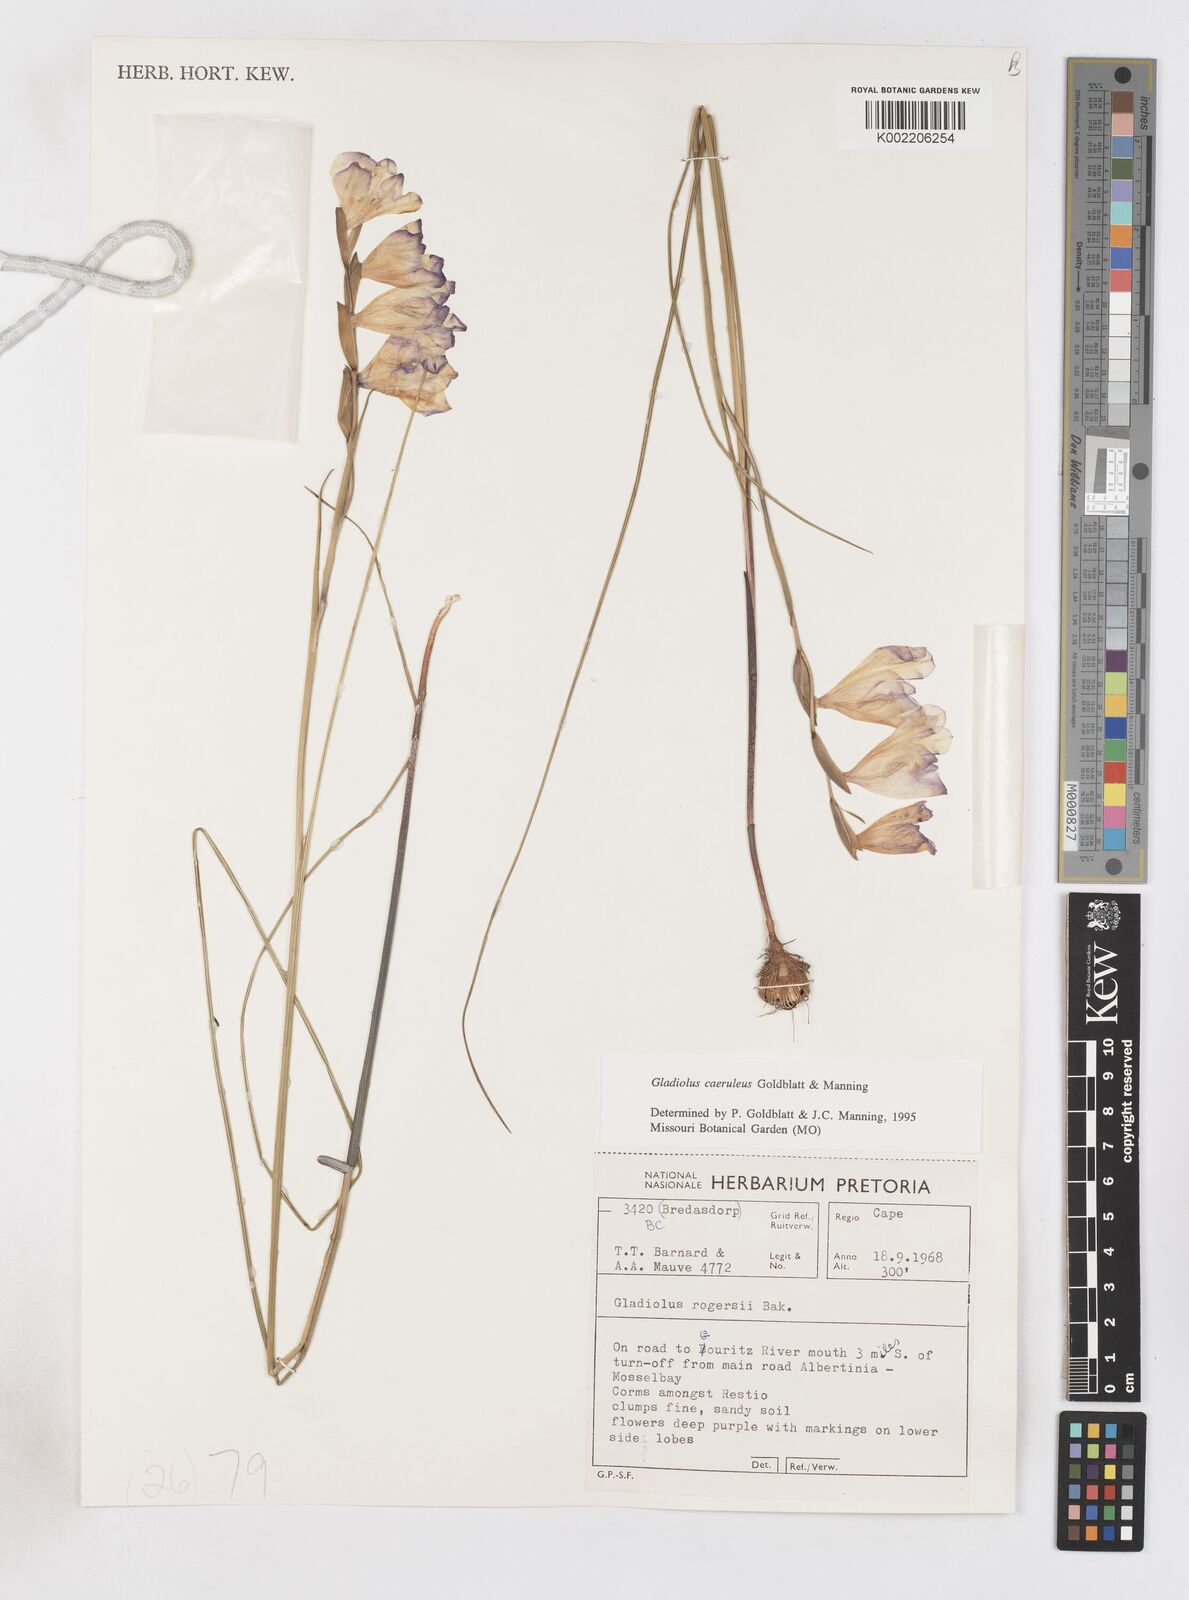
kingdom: Plantae
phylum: Tracheophyta
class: Liliopsida
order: Asparagales
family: Iridaceae
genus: Gladiolus
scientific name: Gladiolus caeruleus
